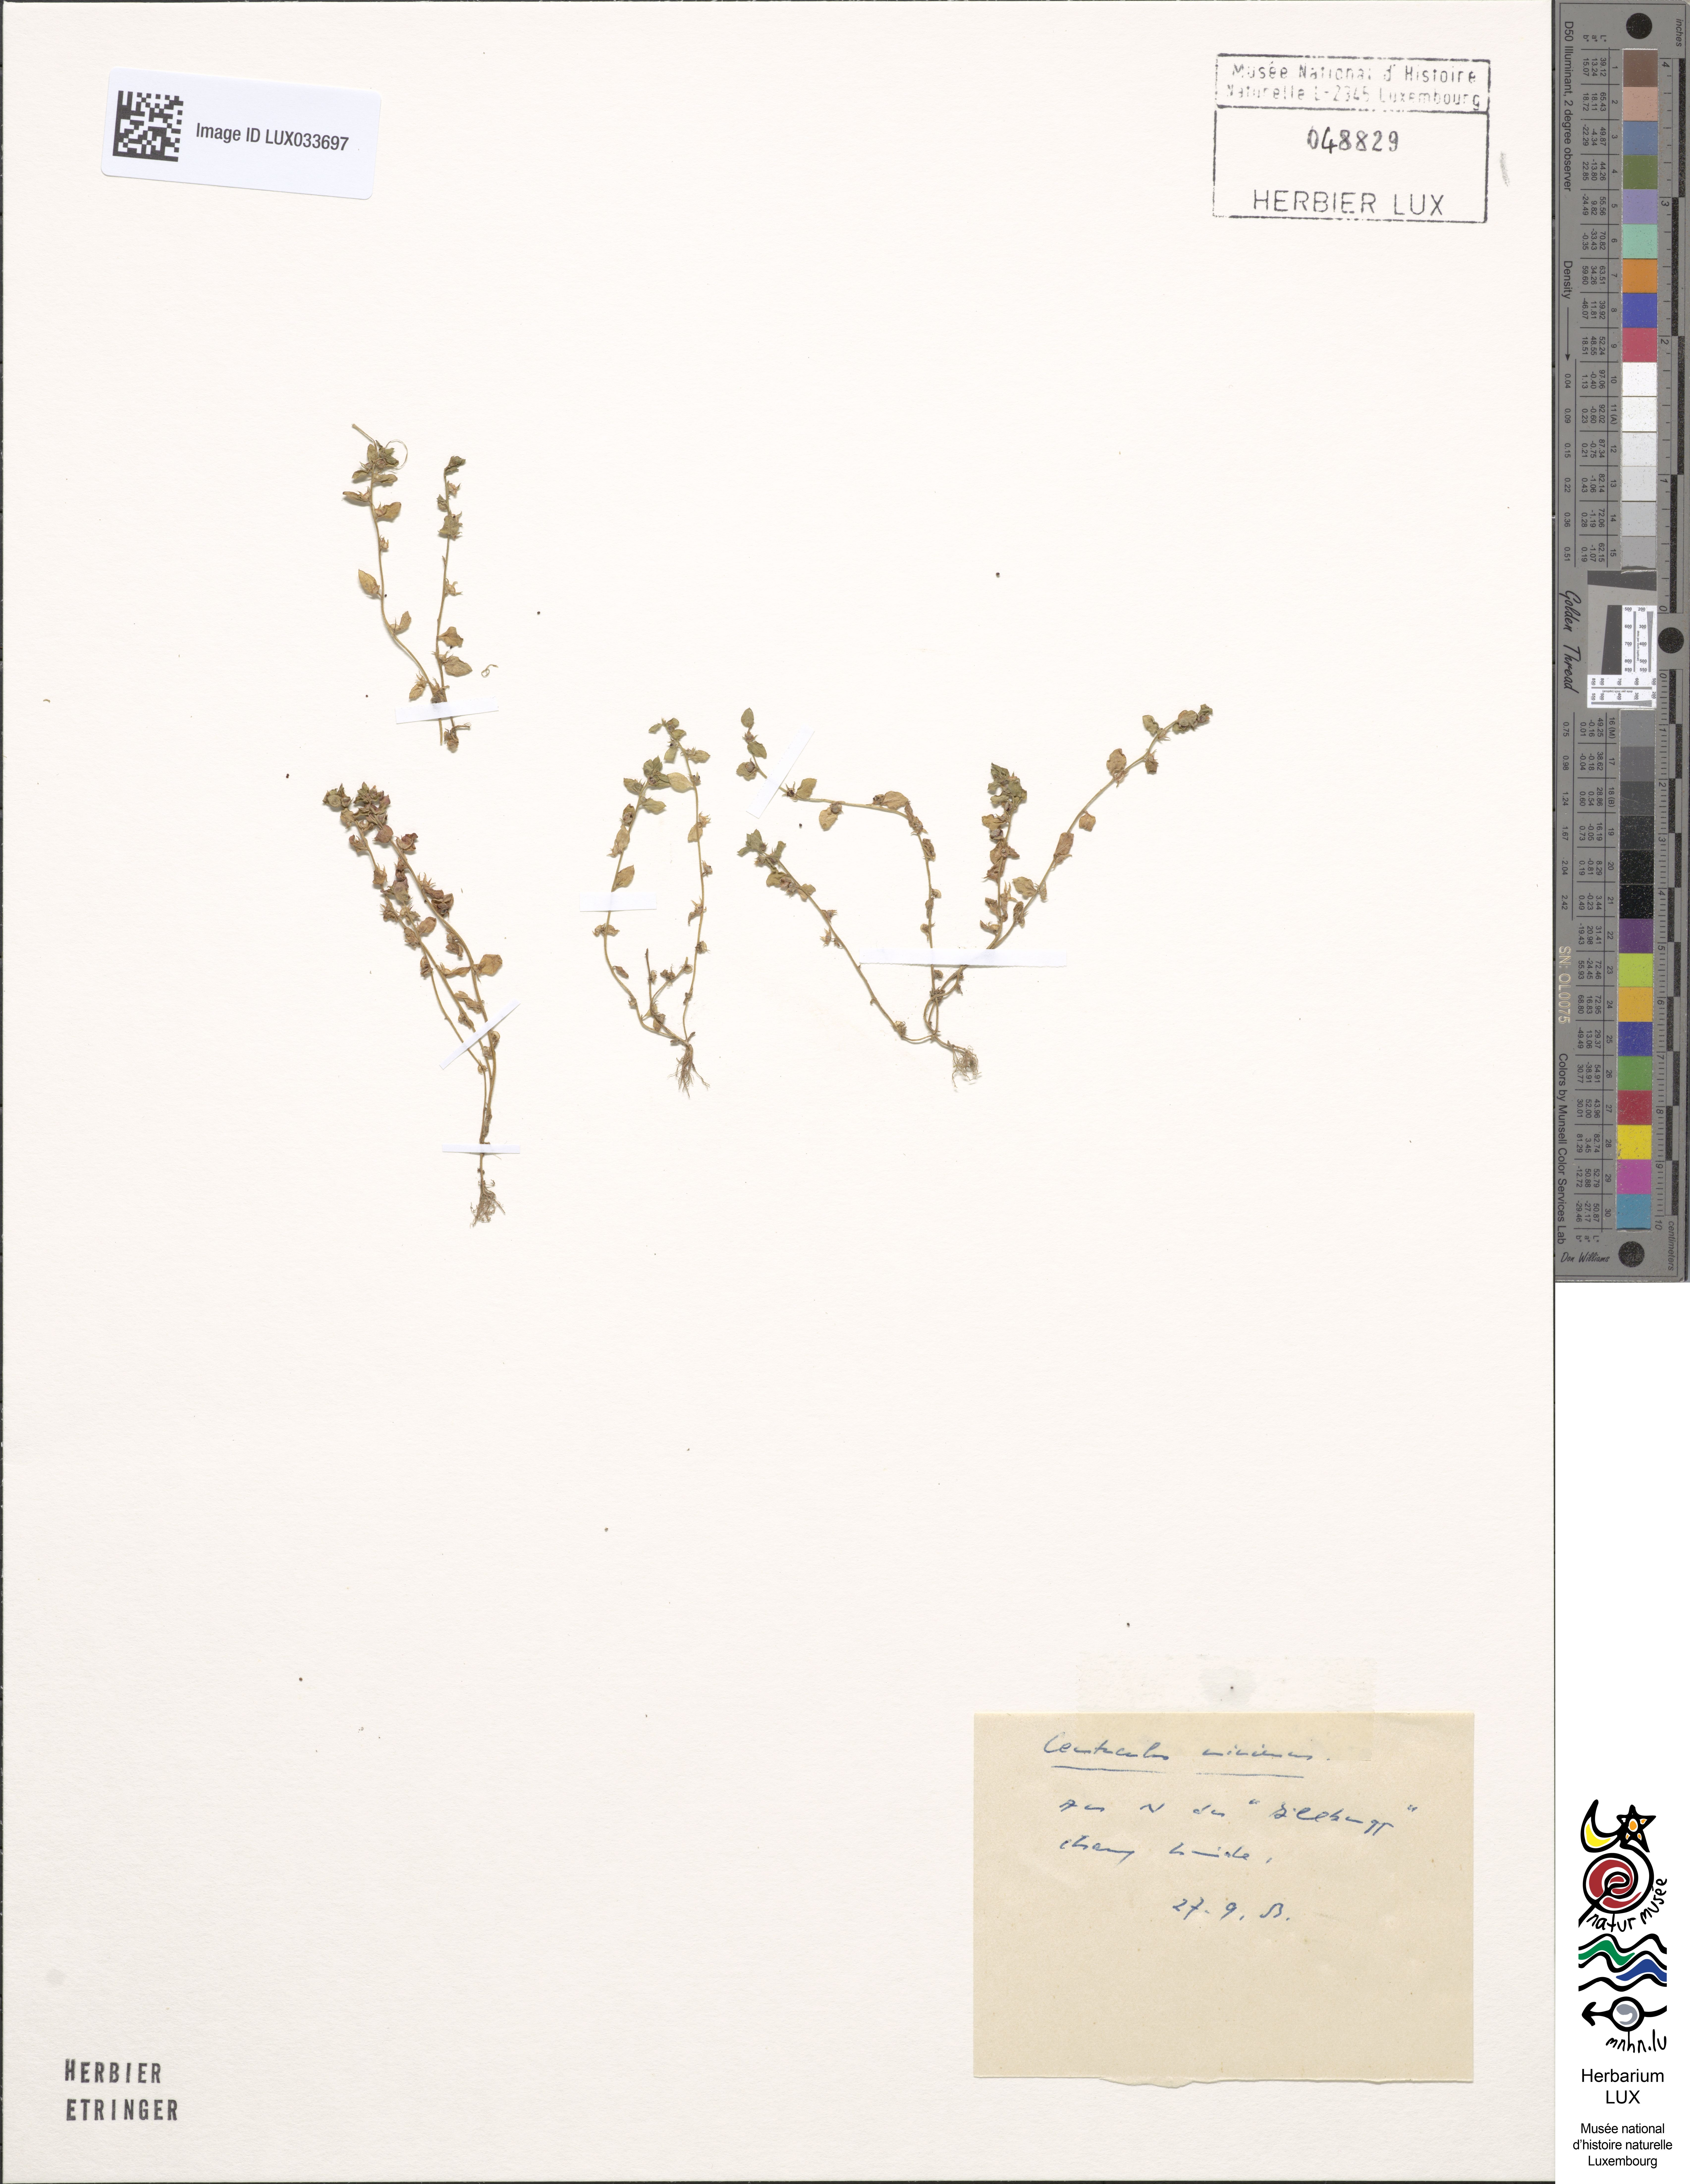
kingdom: Plantae
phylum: Tracheophyta
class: Magnoliopsida
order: Ericales
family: Primulaceae
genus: Lysimachia
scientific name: Lysimachia minima
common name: Chaffweed
